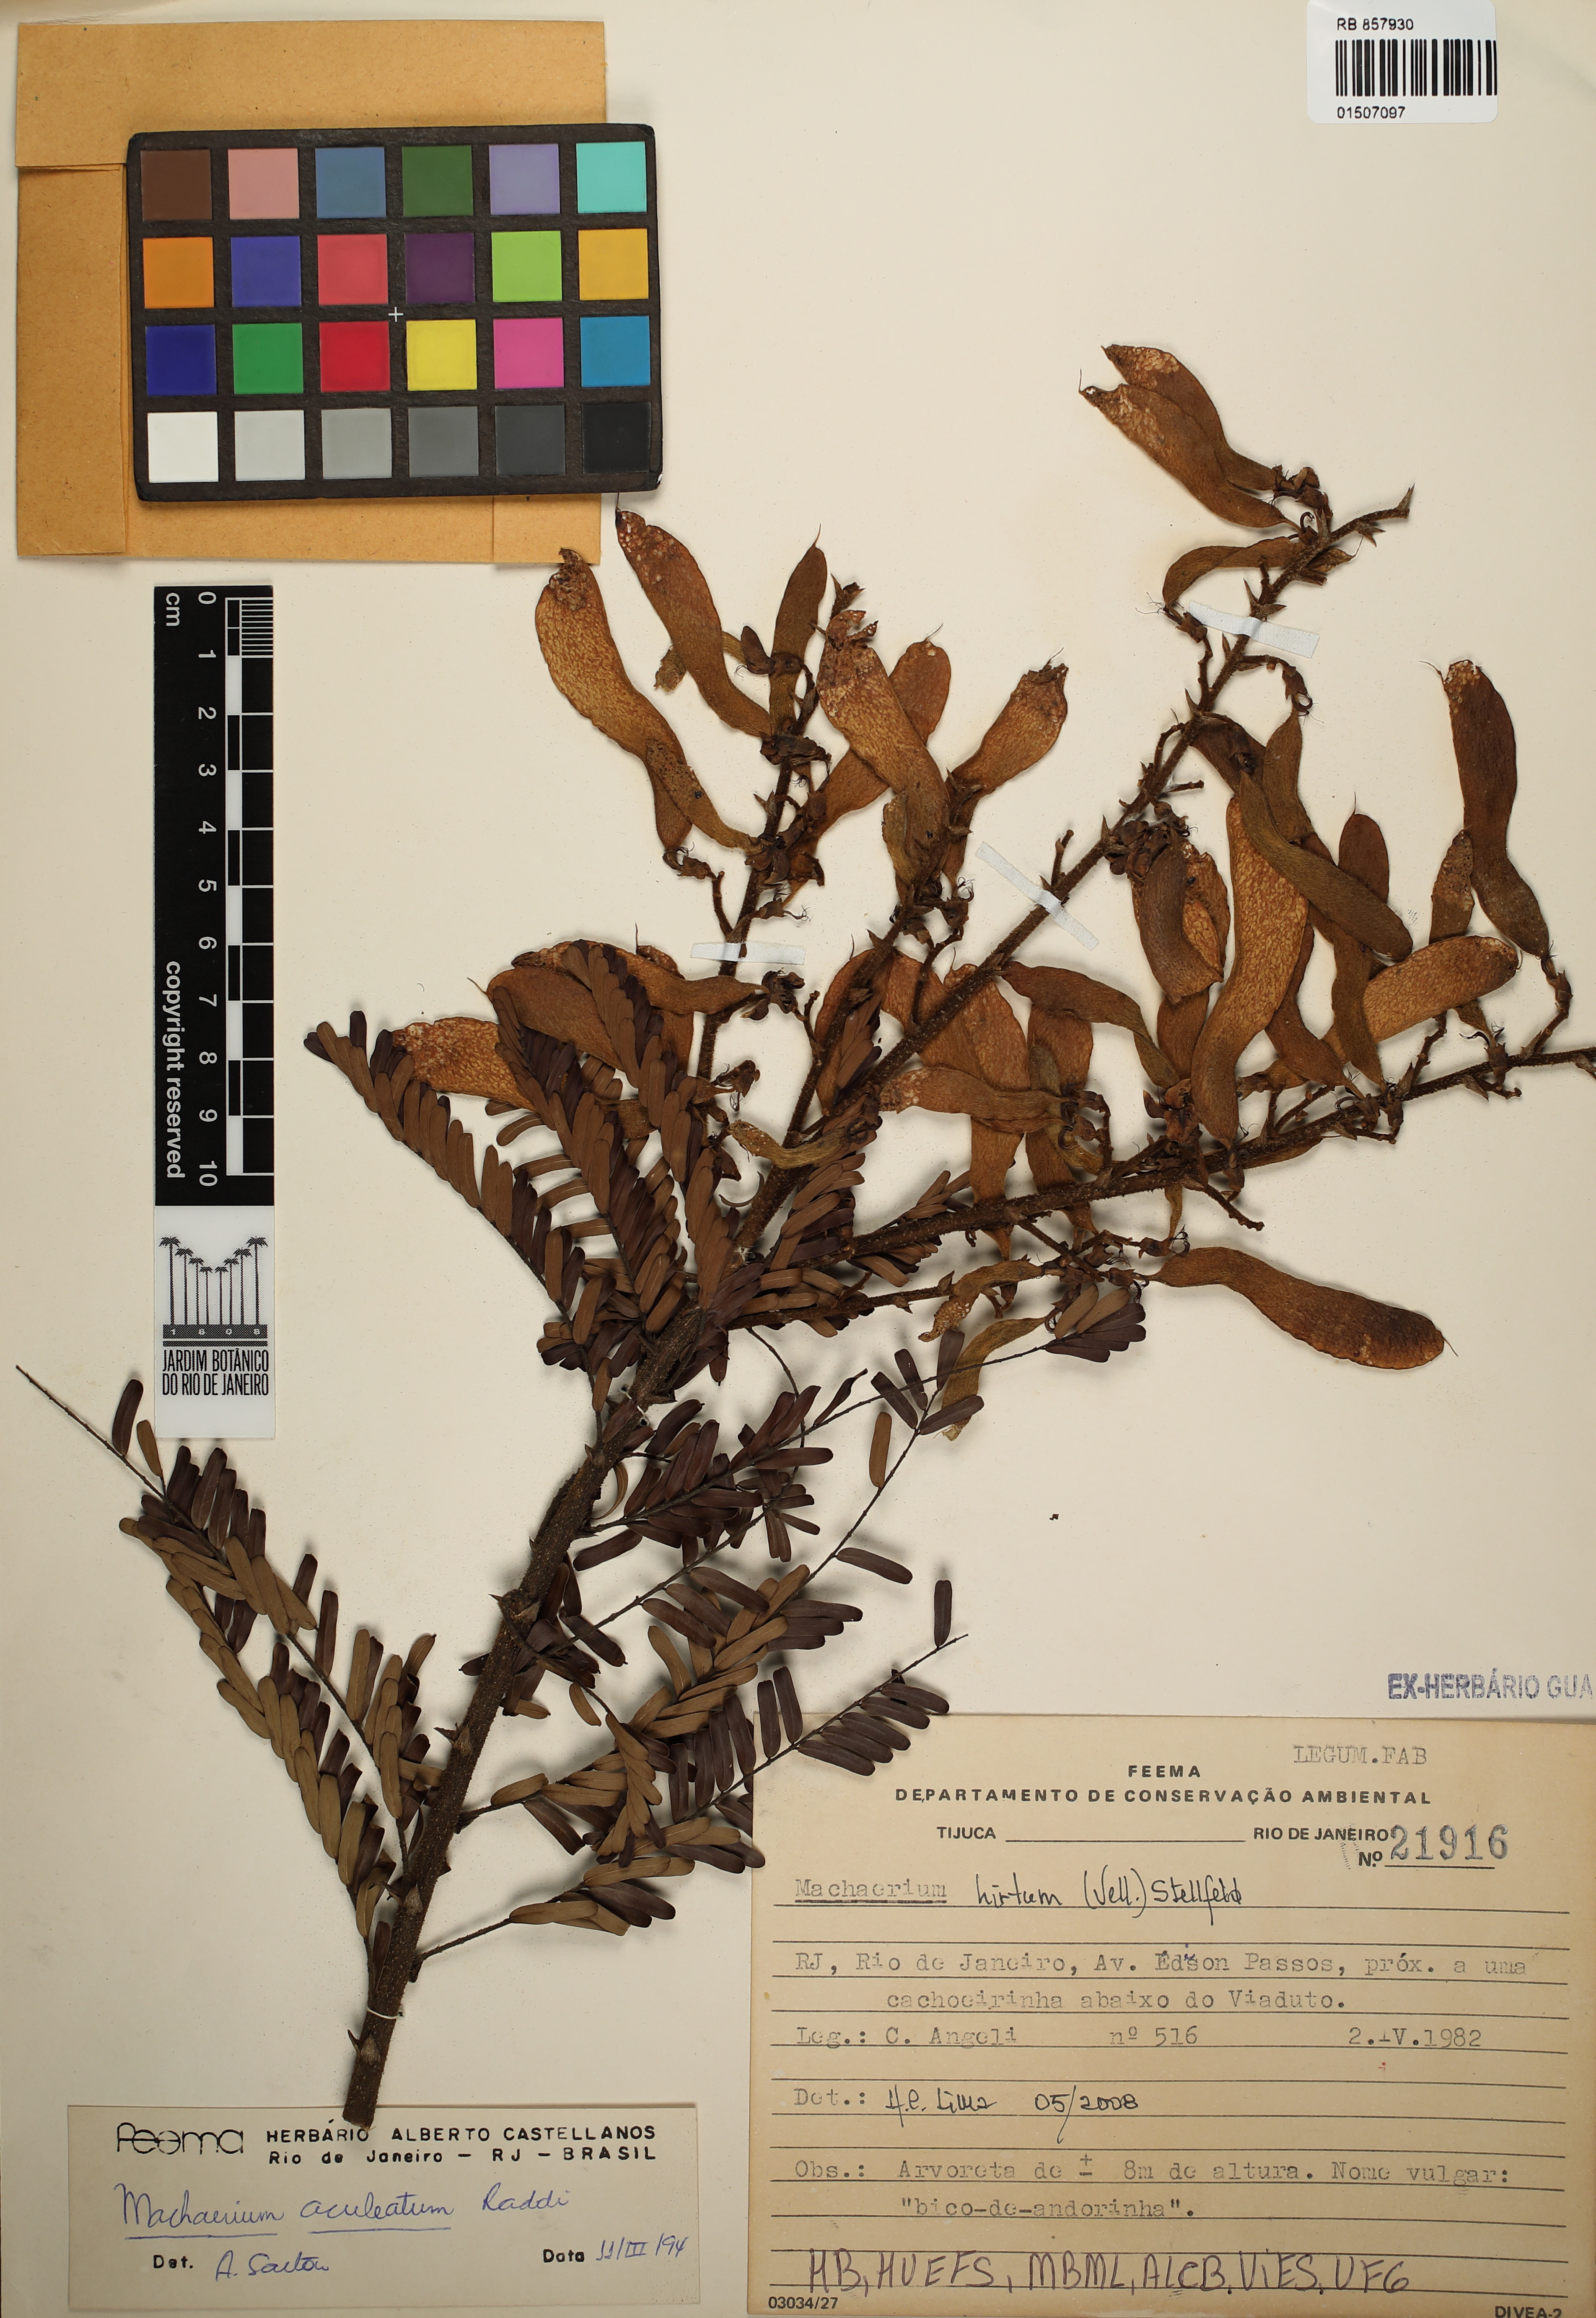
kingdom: Plantae
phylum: Tracheophyta
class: Magnoliopsida
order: Fabales
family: Fabaceae
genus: Machaerium
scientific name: Machaerium hirtum
